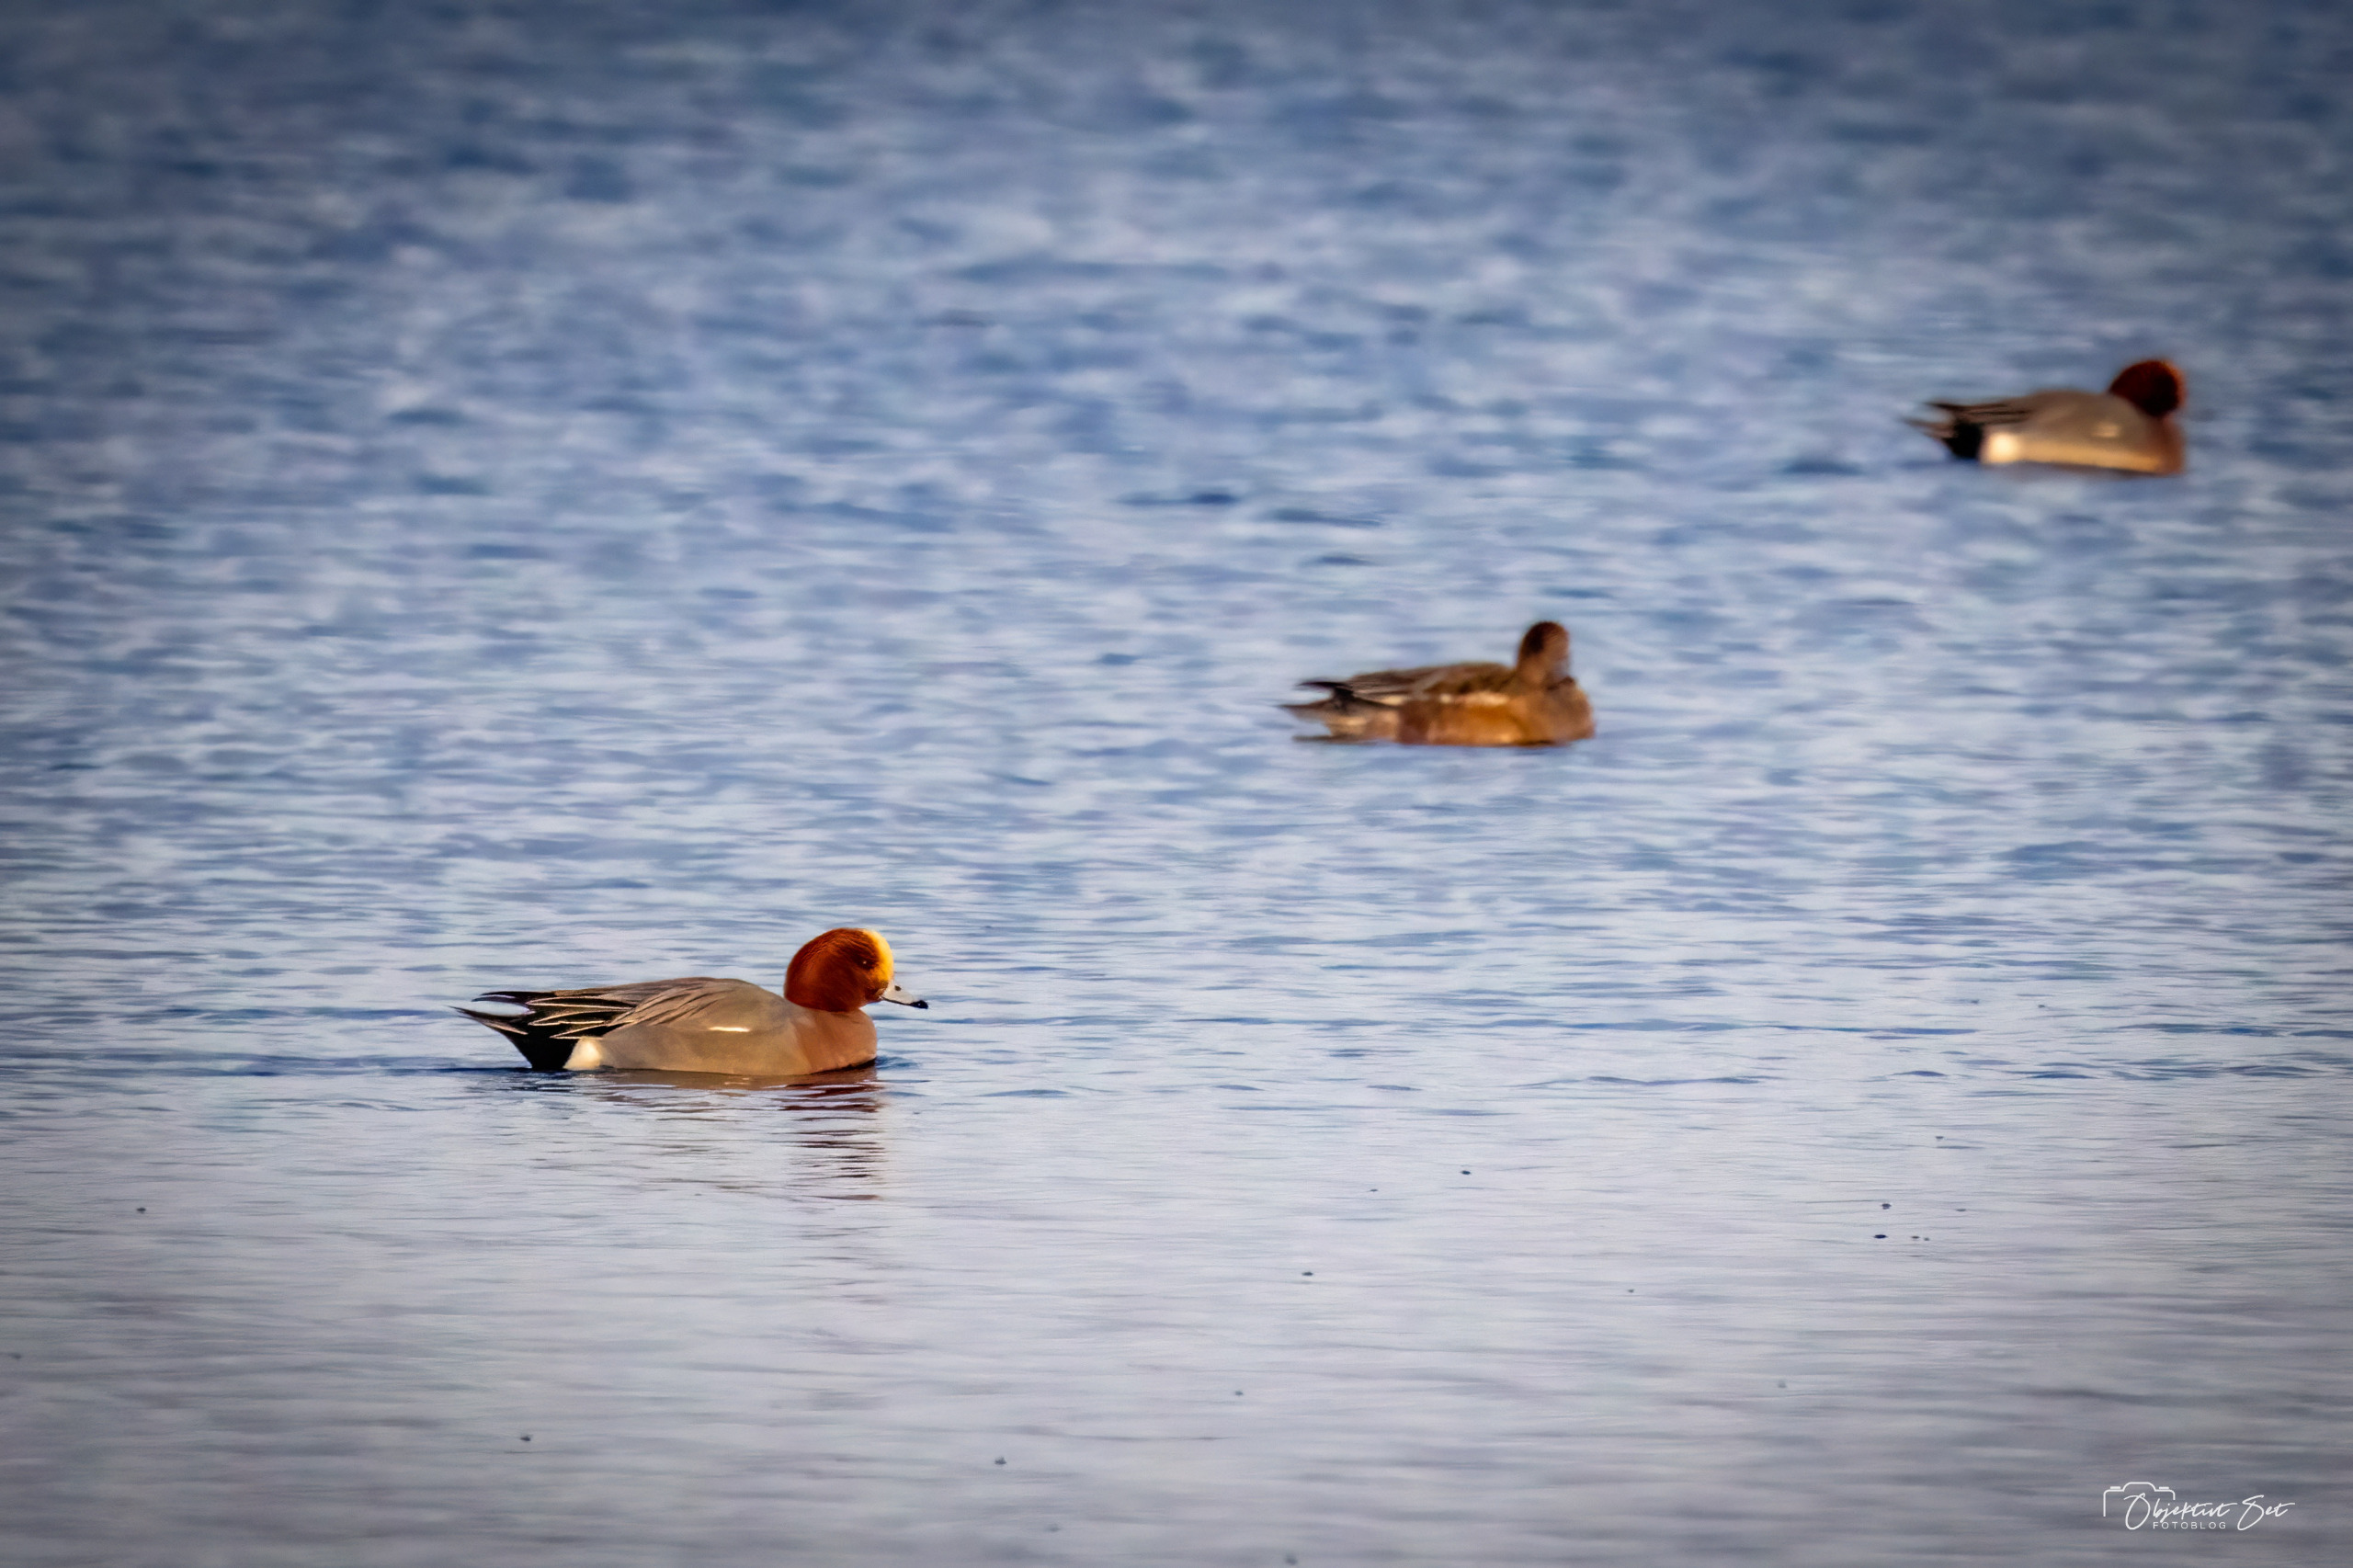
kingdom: Animalia
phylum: Chordata
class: Aves
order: Anseriformes
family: Anatidae
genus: Mareca
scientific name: Mareca penelope
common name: Pibeand
